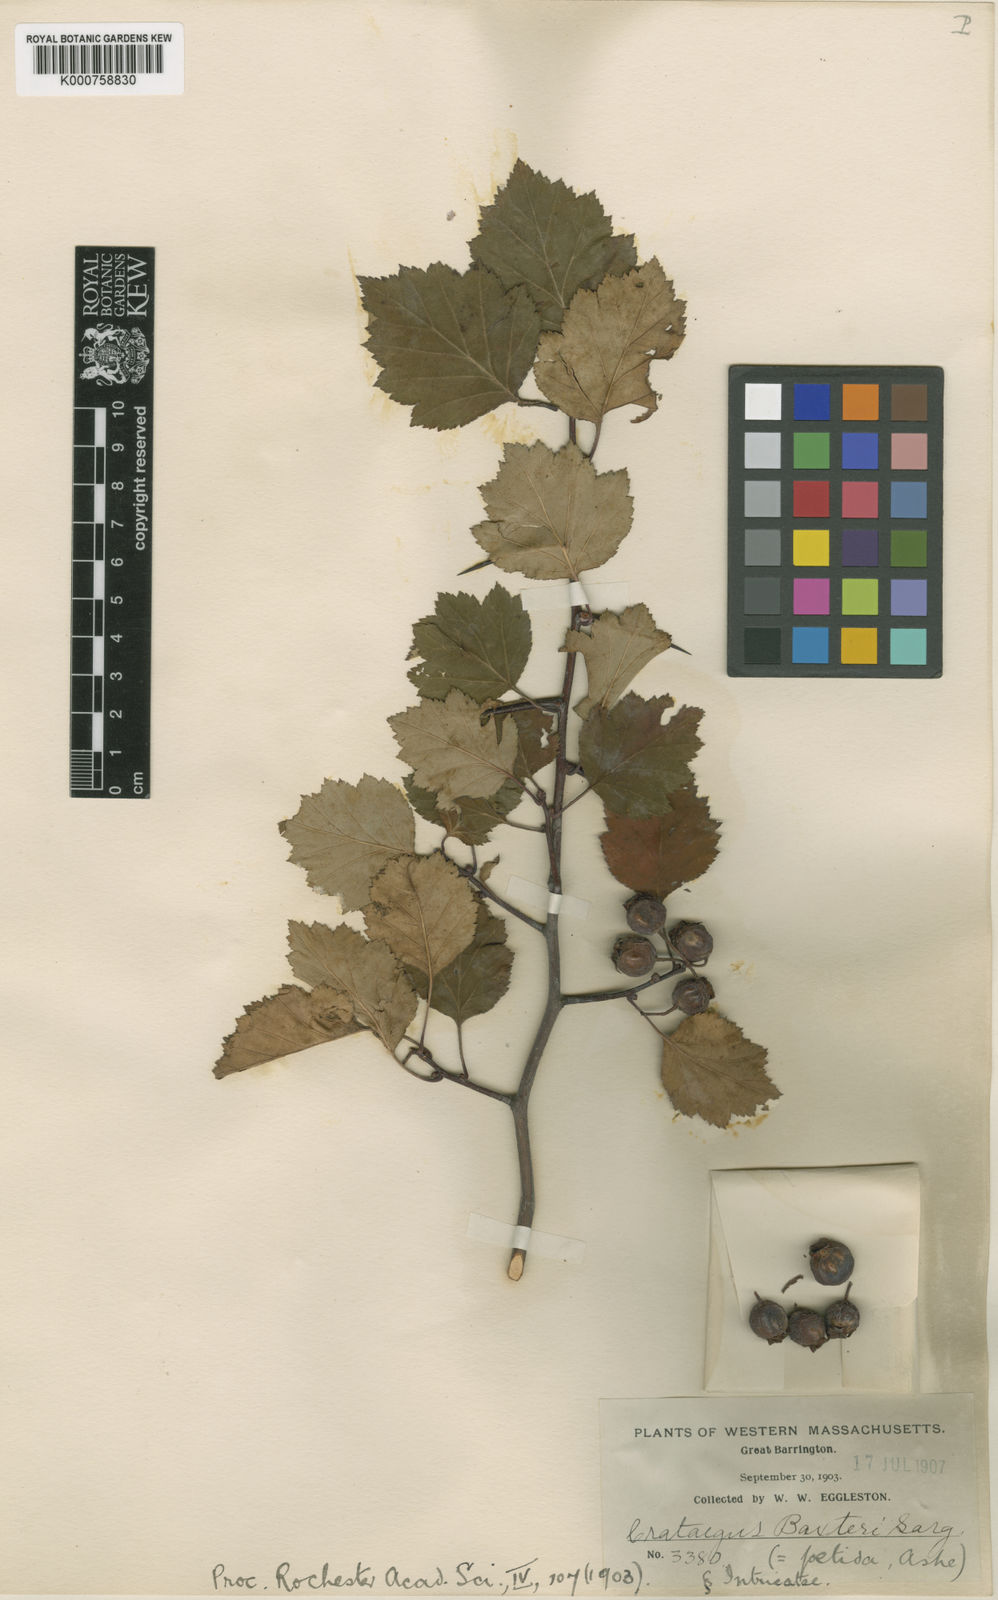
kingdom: Plantae
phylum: Tracheophyta
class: Magnoliopsida
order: Rosales
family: Rosaceae
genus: Crataegus
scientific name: Crataegus baxteri
